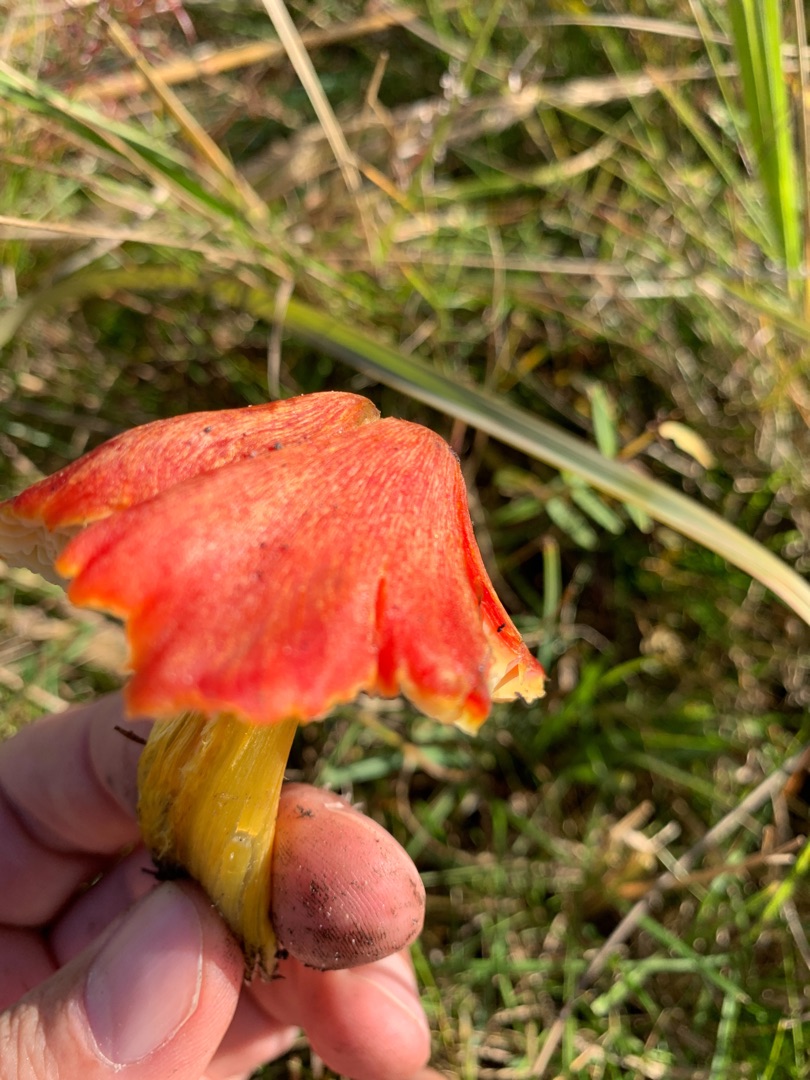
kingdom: Fungi
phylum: Basidiomycota
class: Agaricomycetes
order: Agaricales
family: Hygrophoraceae
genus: Hygrocybe
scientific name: Hygrocybe conica
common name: Kegle-vokshat
